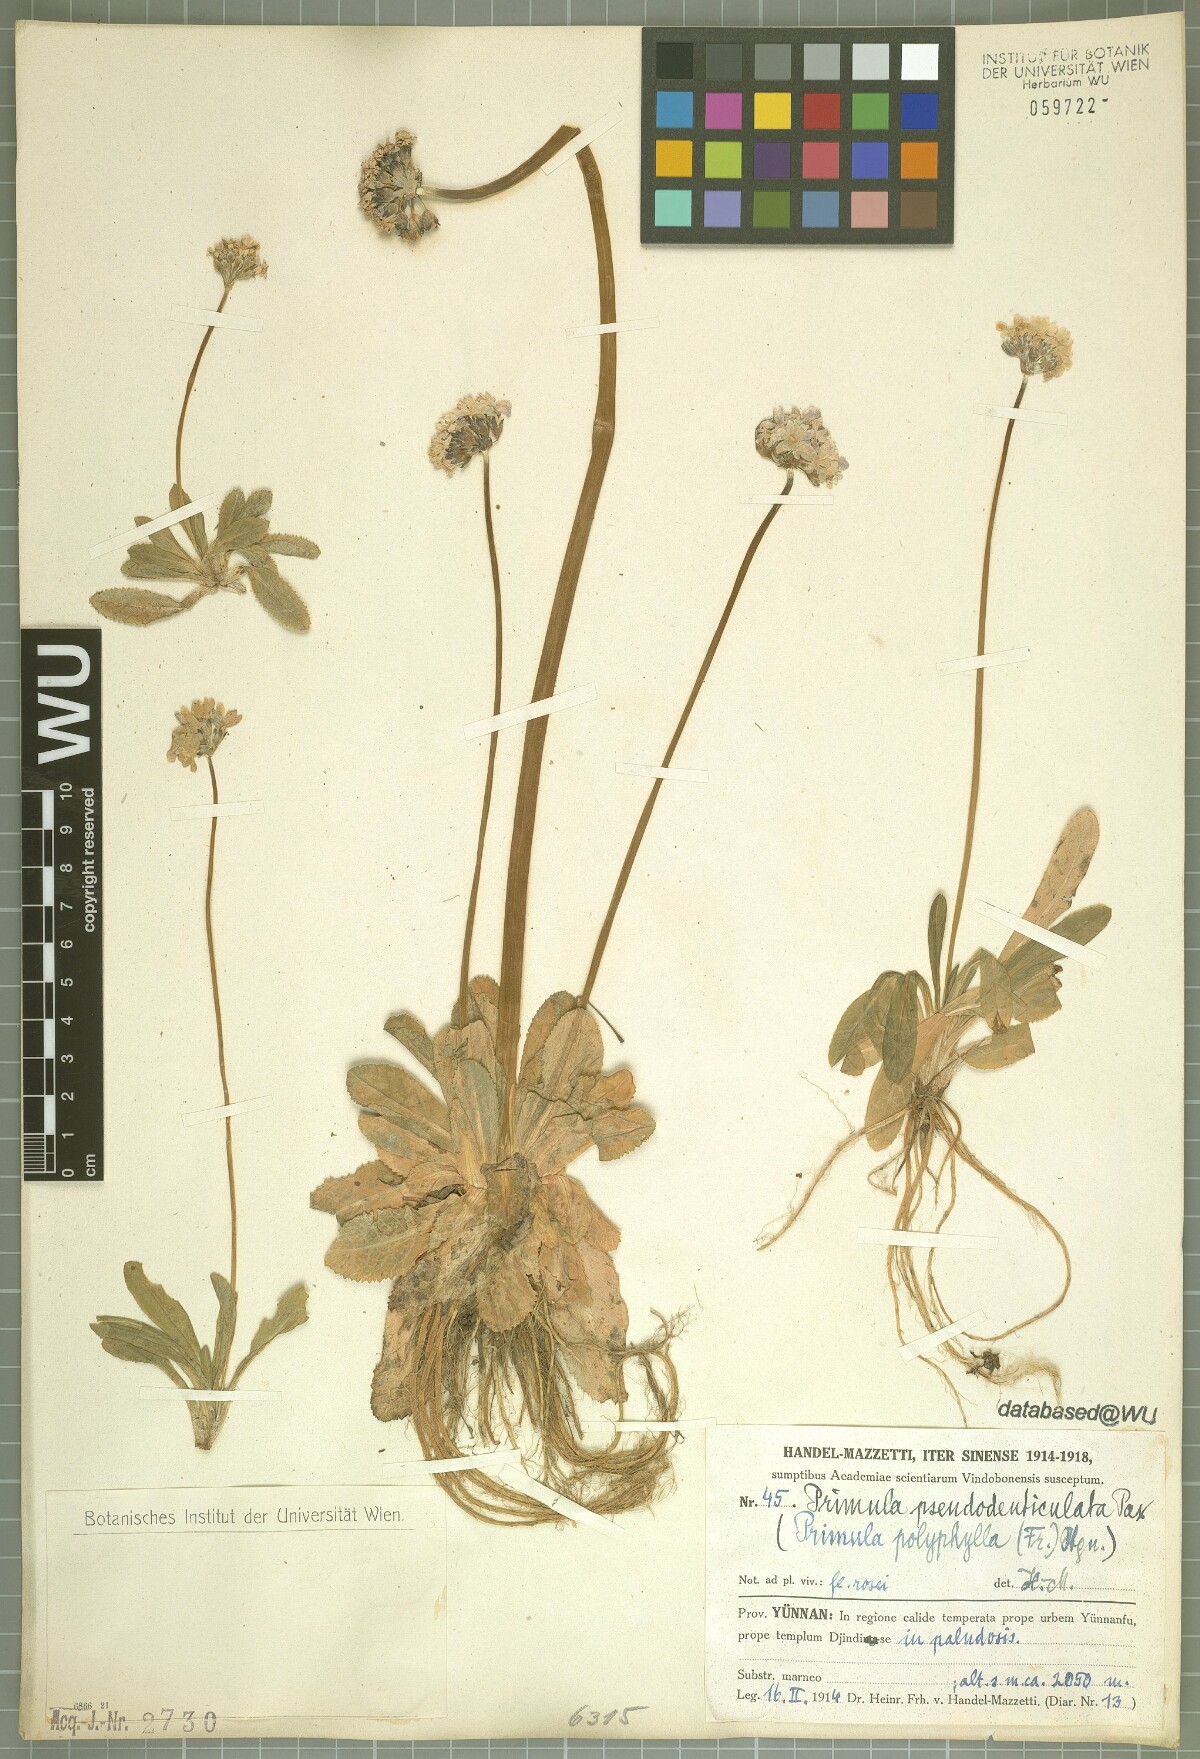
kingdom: Plantae
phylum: Tracheophyta
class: Magnoliopsida
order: Ericales
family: Primulaceae
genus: Primula
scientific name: Primula pseudodenticulata
